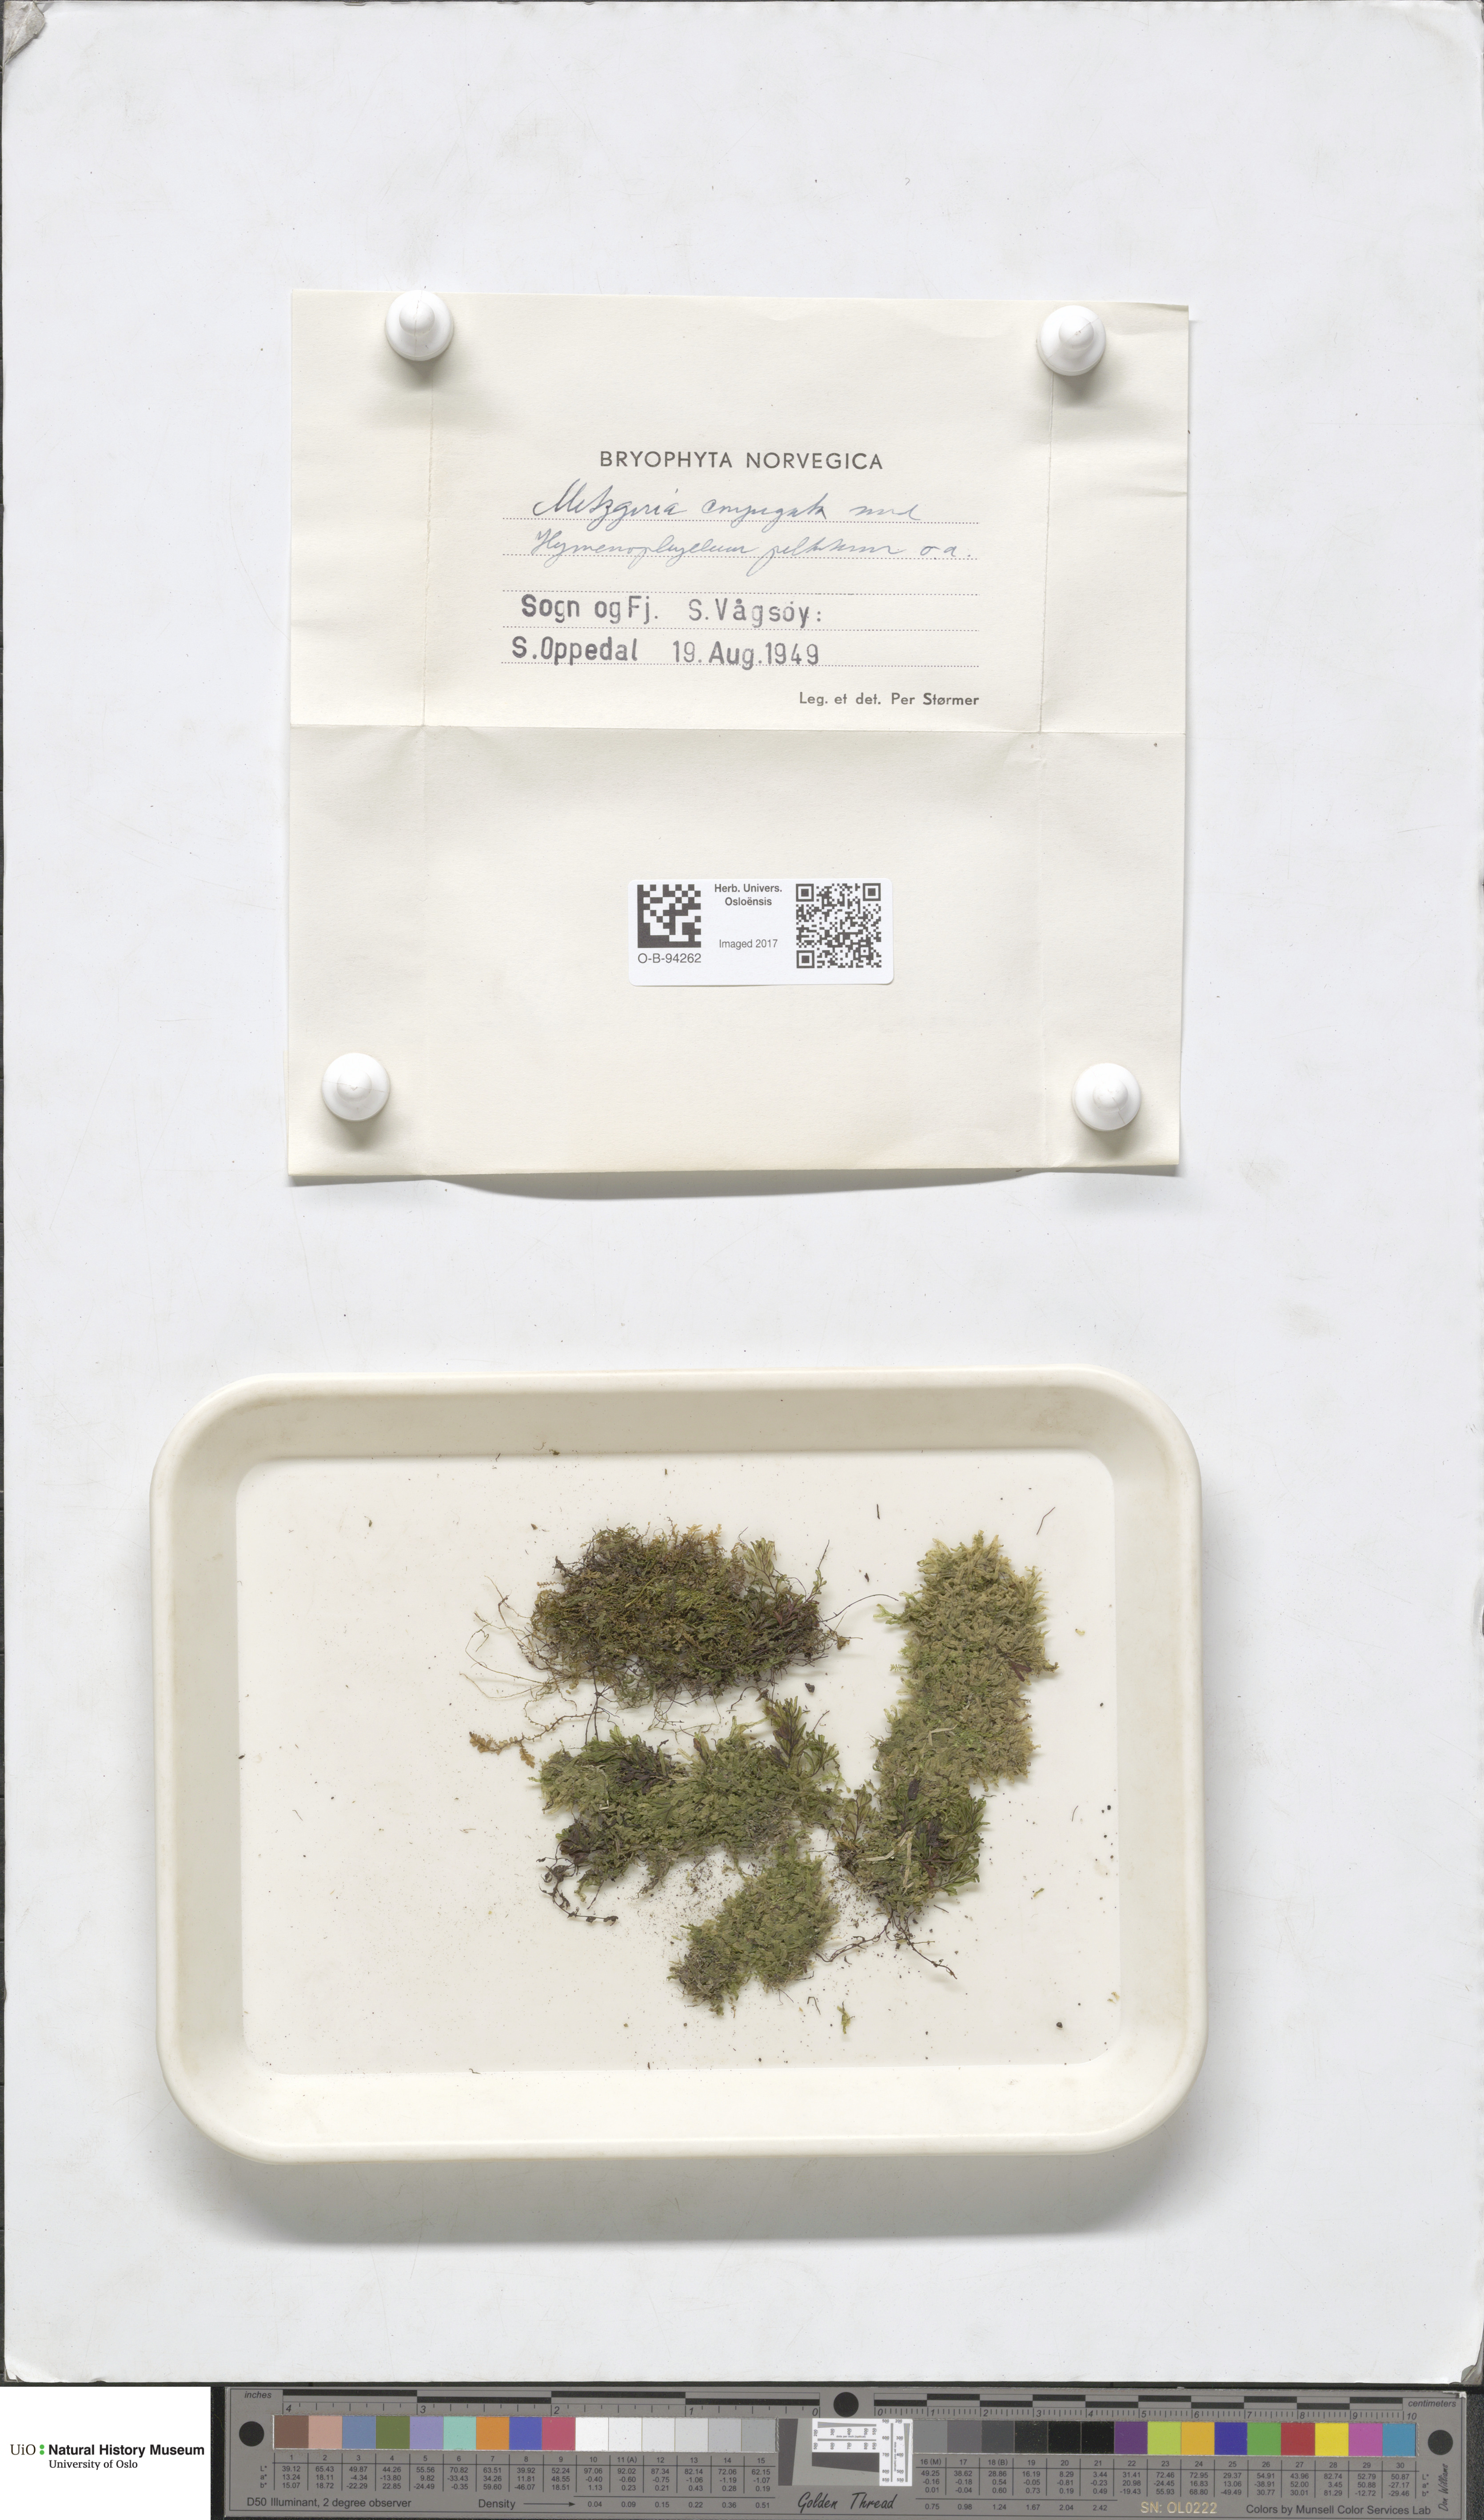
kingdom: Plantae
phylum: Marchantiophyta
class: Jungermanniopsida
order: Metzgeriales
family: Metzgeriaceae
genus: Metzgeria
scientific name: Metzgeria conjugata
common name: Rock veilwort
